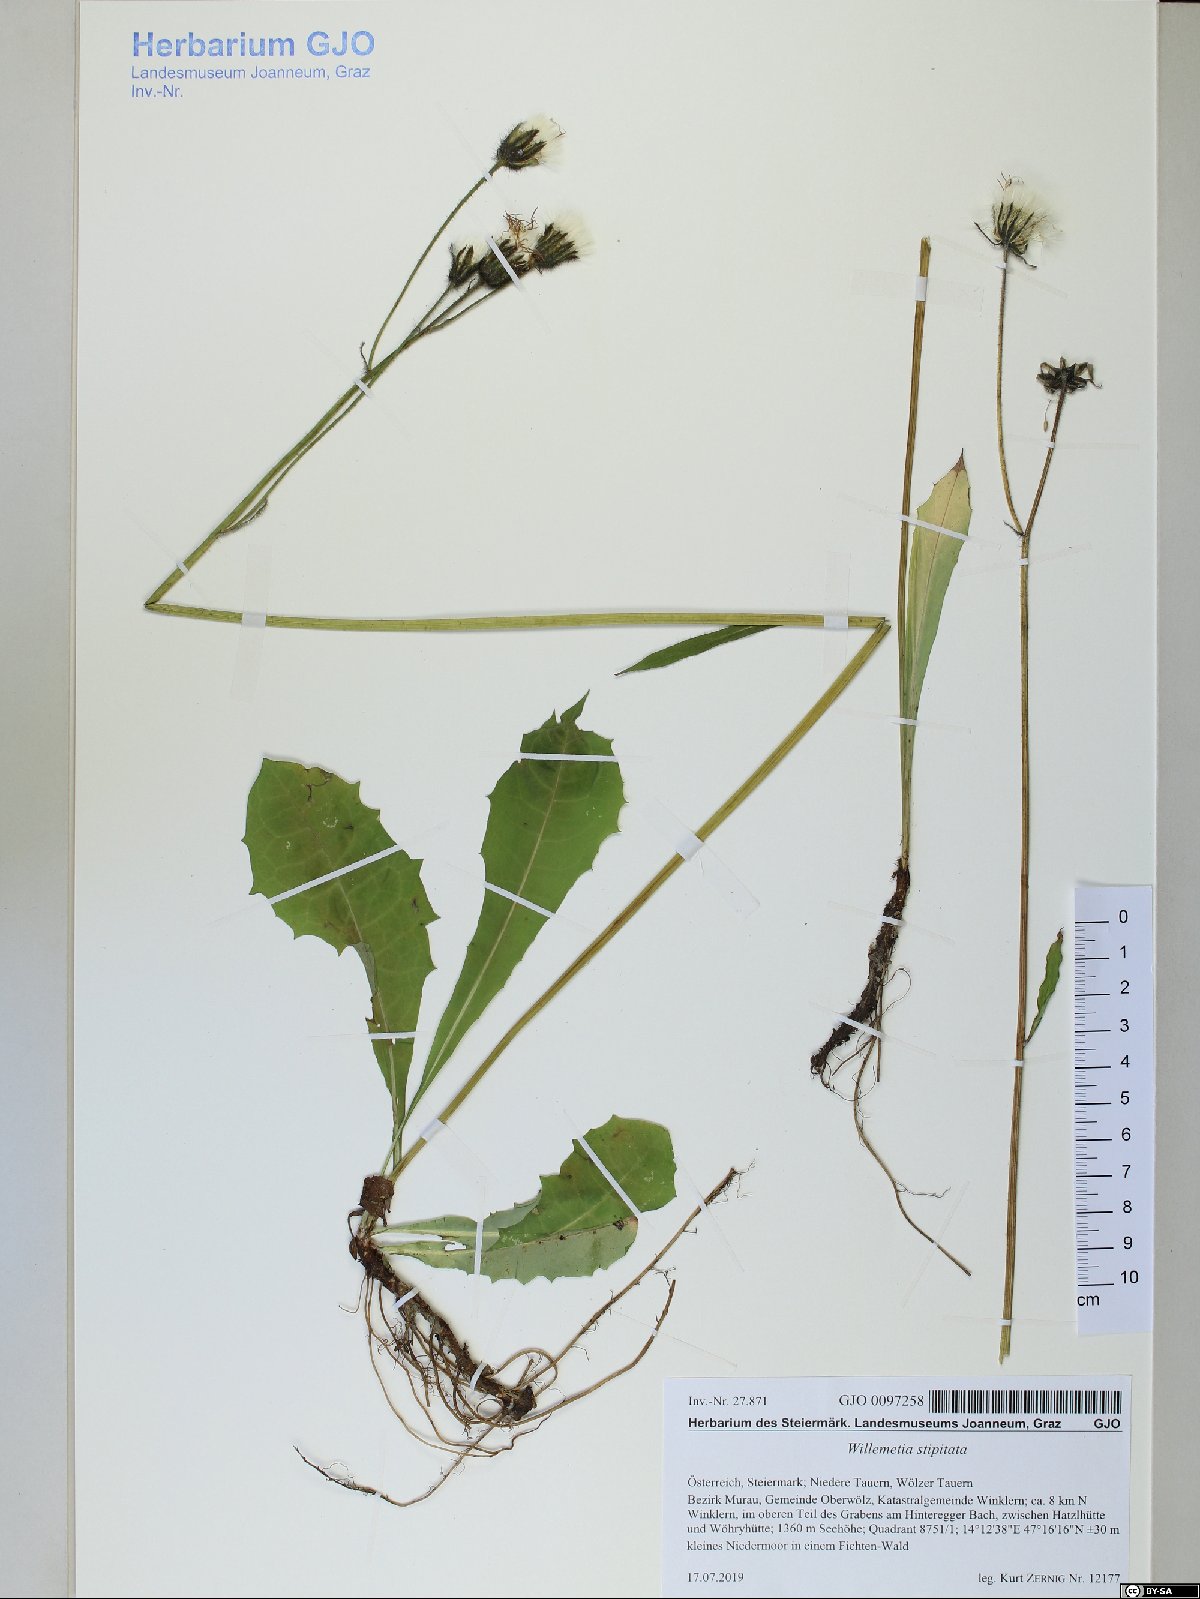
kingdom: Plantae
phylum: Tracheophyta
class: Magnoliopsida
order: Asterales
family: Asteraceae
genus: Willemetia
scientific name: Willemetia stipitata
